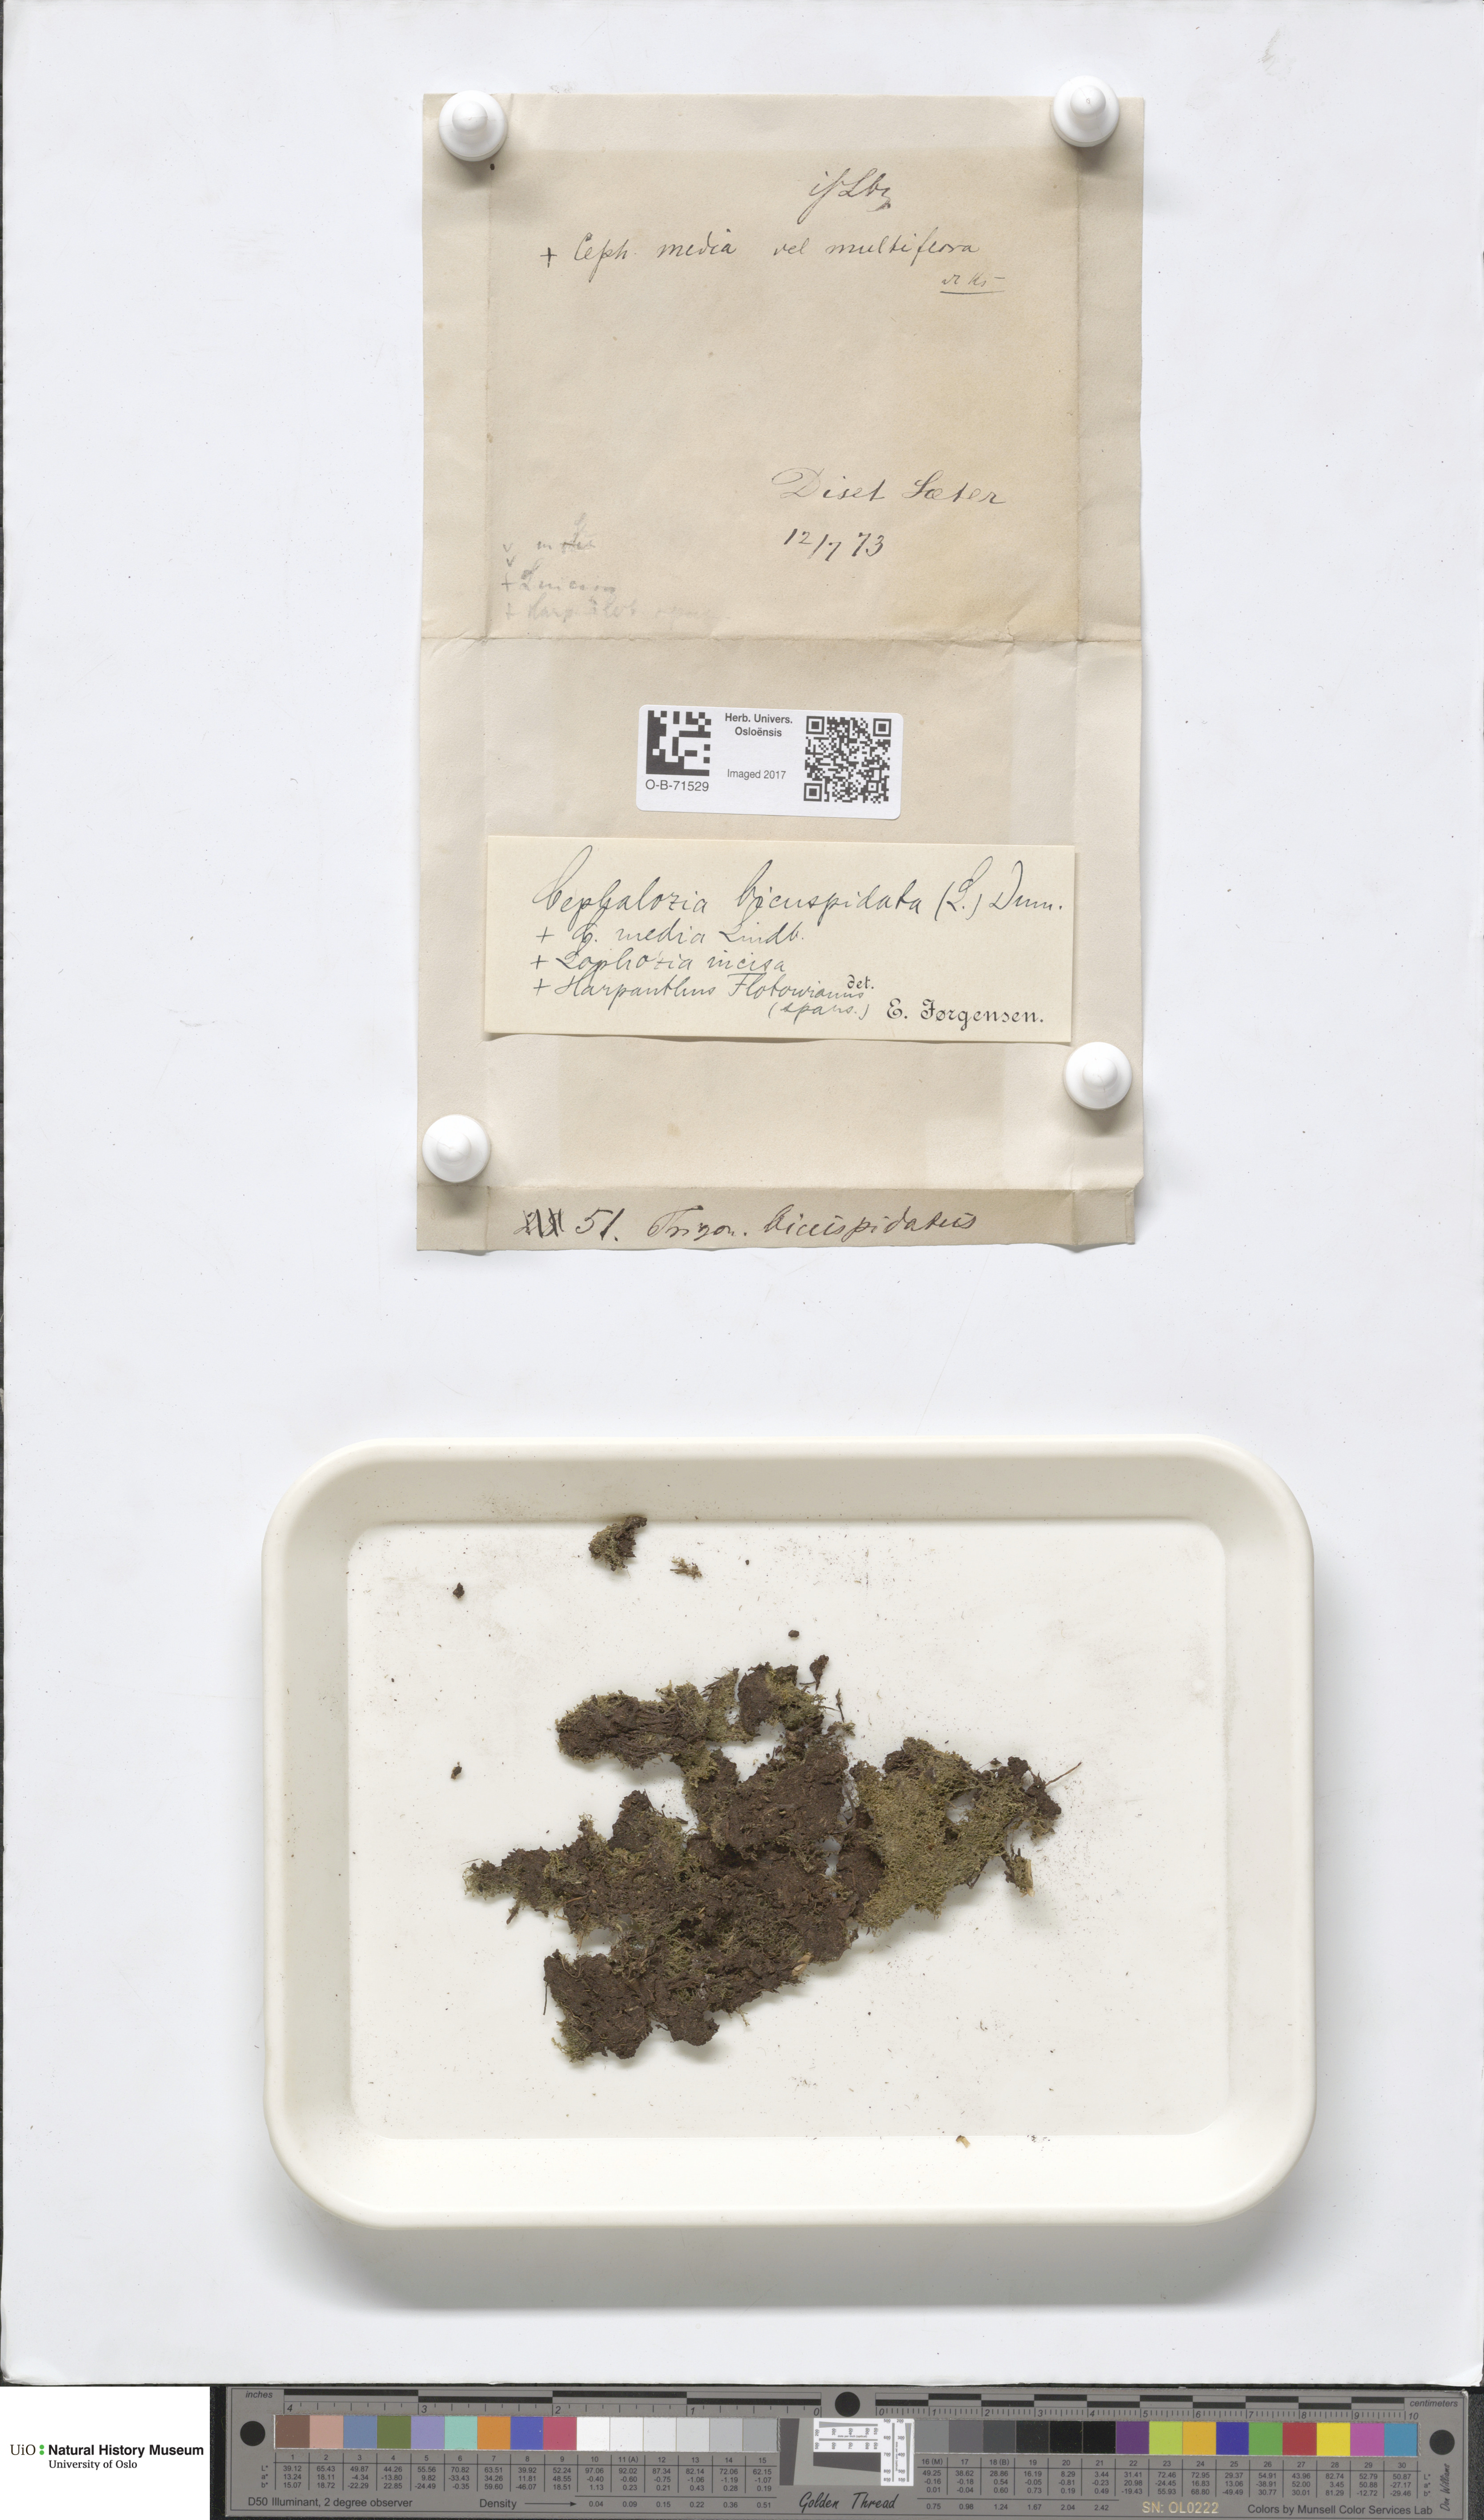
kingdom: Plantae
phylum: Marchantiophyta
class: Jungermanniopsida
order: Jungermanniales
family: Cephaloziaceae
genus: Cephalozia
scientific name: Cephalozia bicuspidata
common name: Two-horned pincerwort
